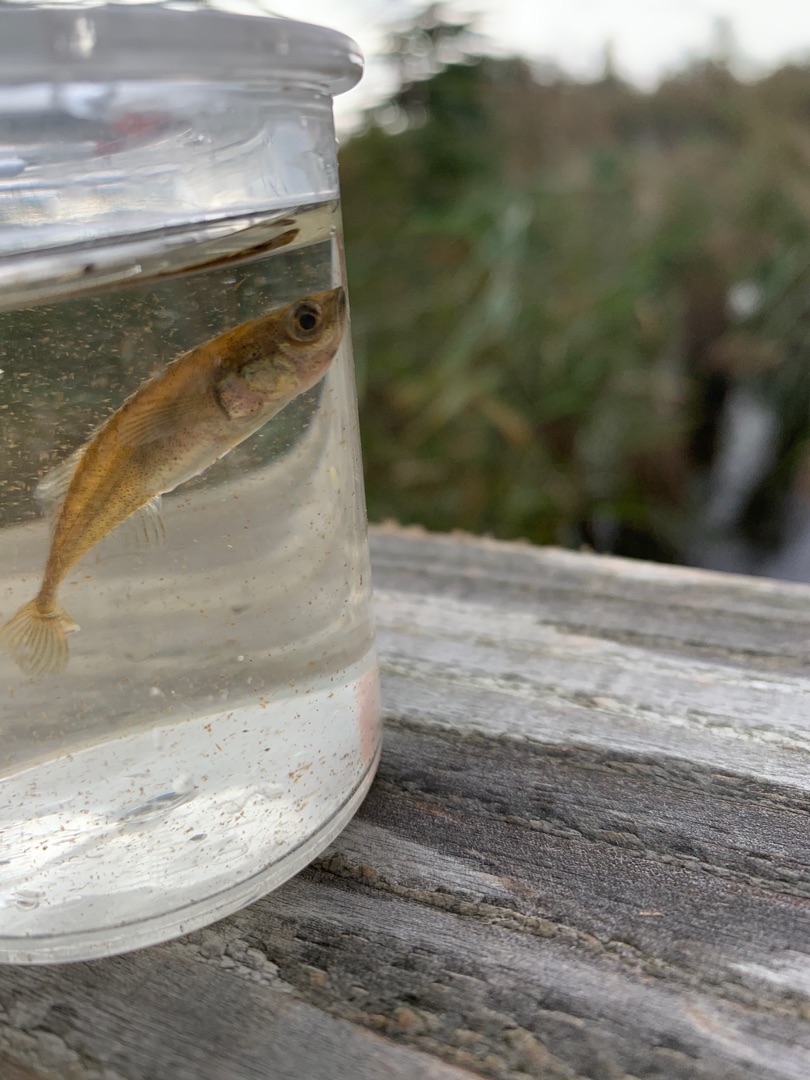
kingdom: Animalia
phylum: Chordata
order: Gasterosteiformes
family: Gasterosteidae
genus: Pungitius
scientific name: Pungitius pungitius
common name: Nipigget hundestejle
